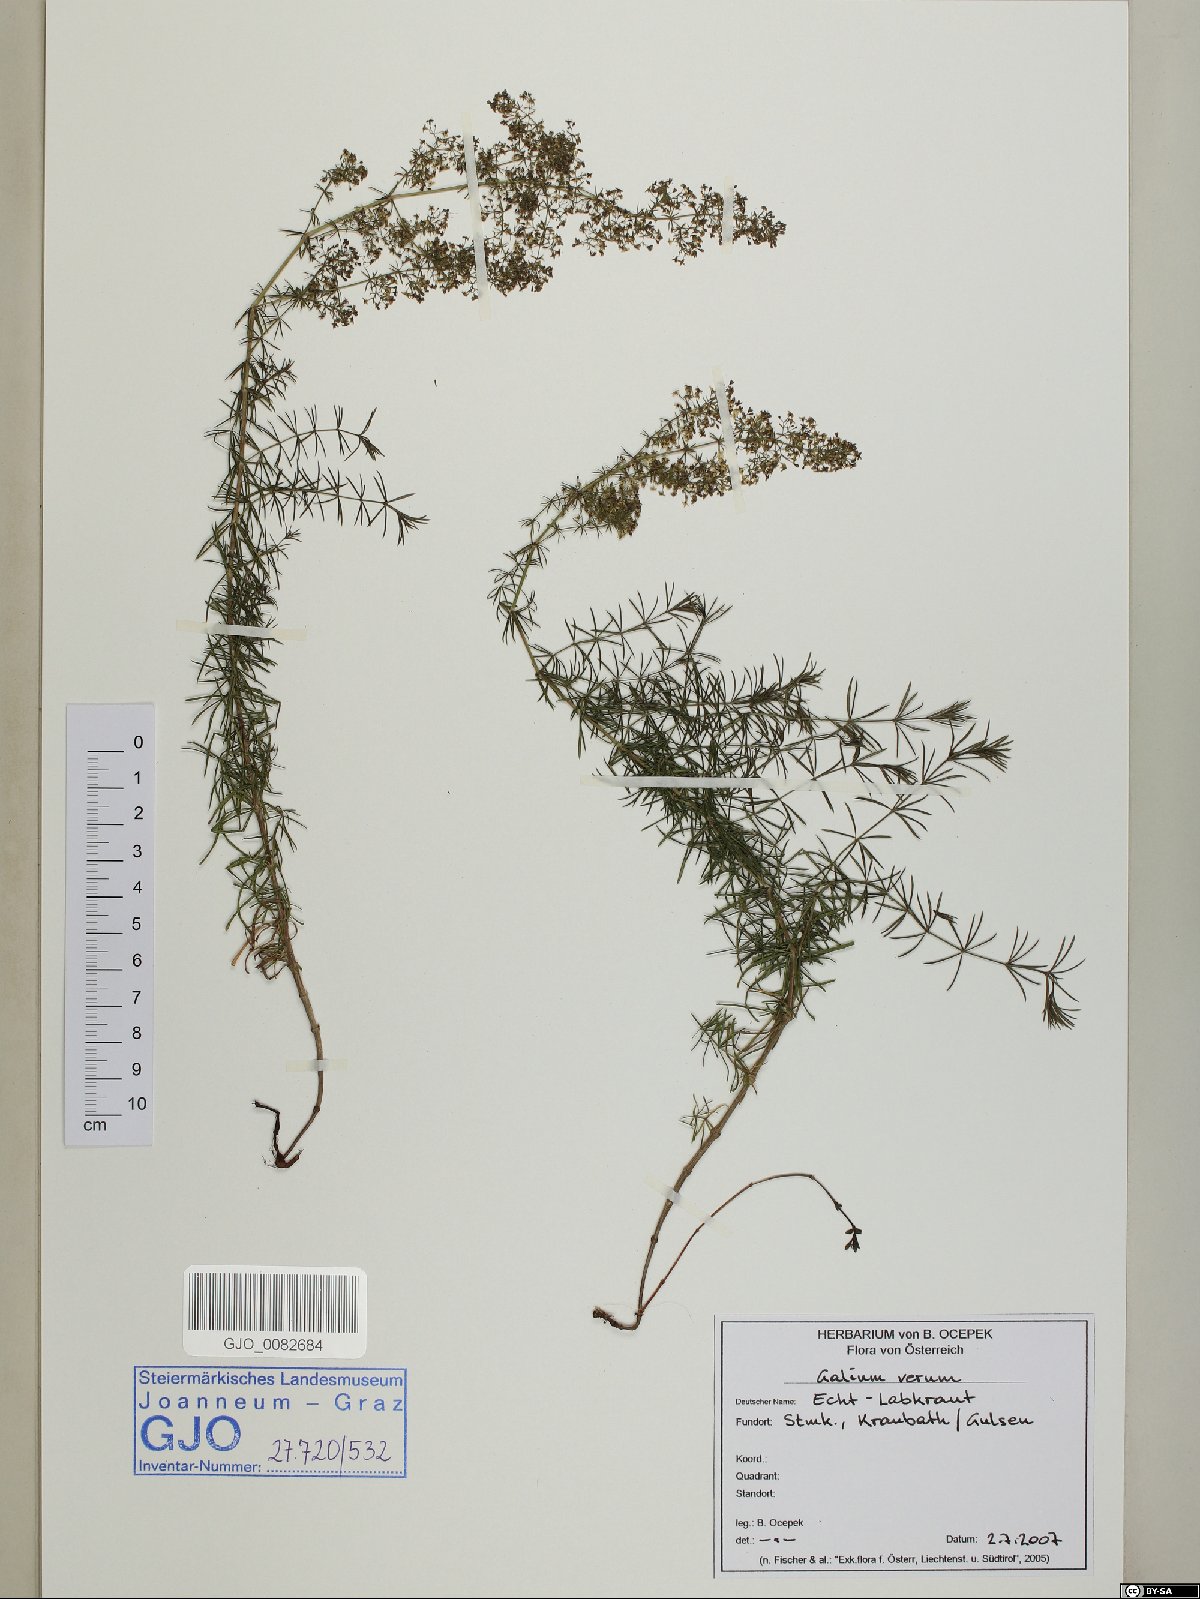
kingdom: Plantae
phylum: Tracheophyta
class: Magnoliopsida
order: Gentianales
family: Rubiaceae
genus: Galium
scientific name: Galium verum
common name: Lady's bedstraw
